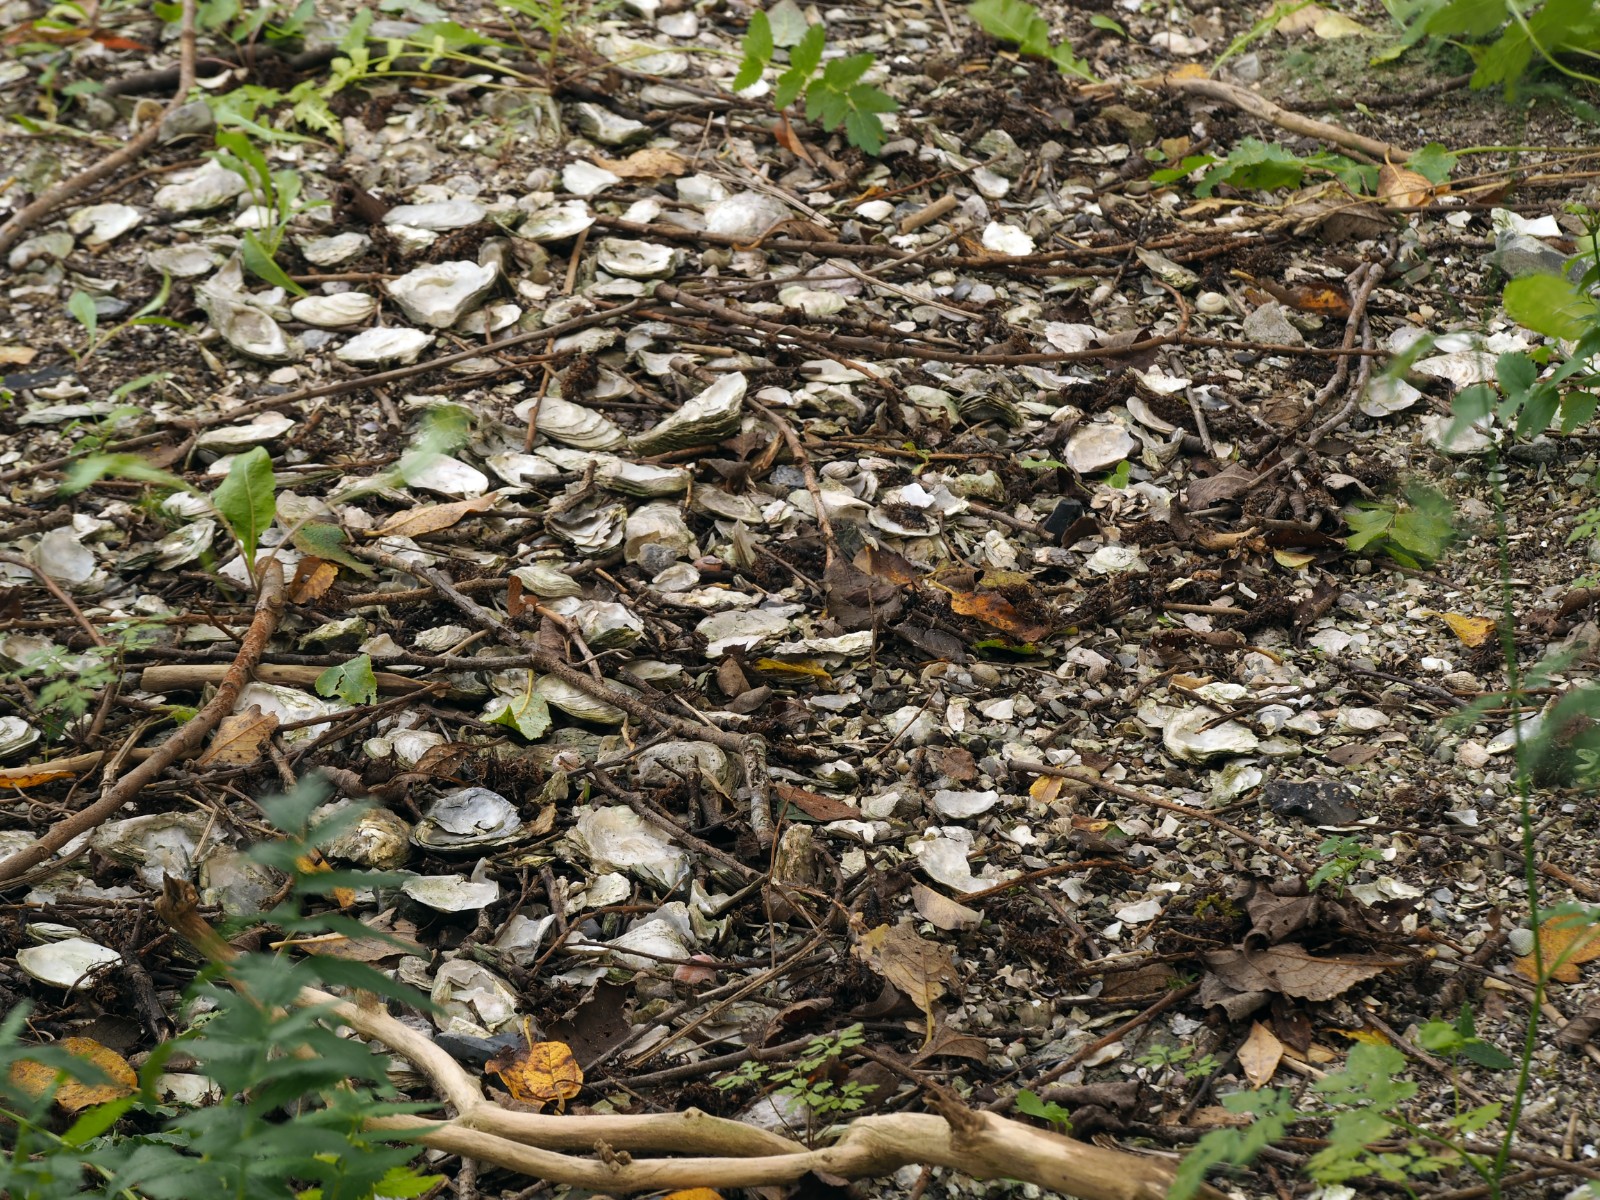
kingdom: Fungi
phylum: Basidiomycota
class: Agaricomycetes
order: Agaricales
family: Inocybaceae
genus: Inocybe
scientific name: Inocybe dulcamara
